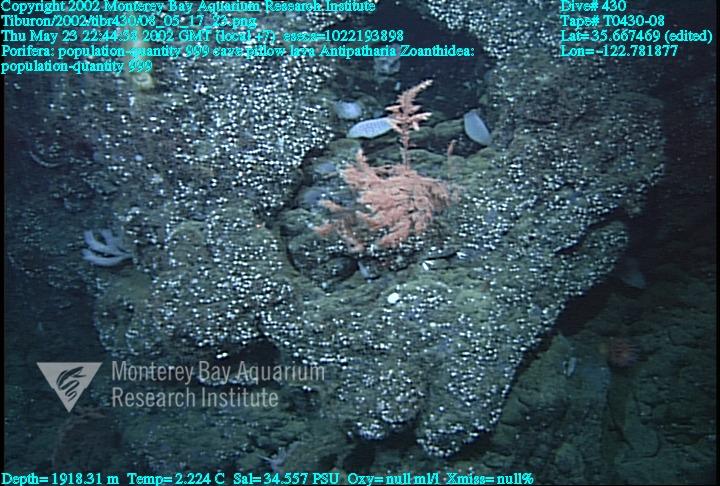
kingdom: Animalia
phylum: Porifera
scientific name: Porifera
